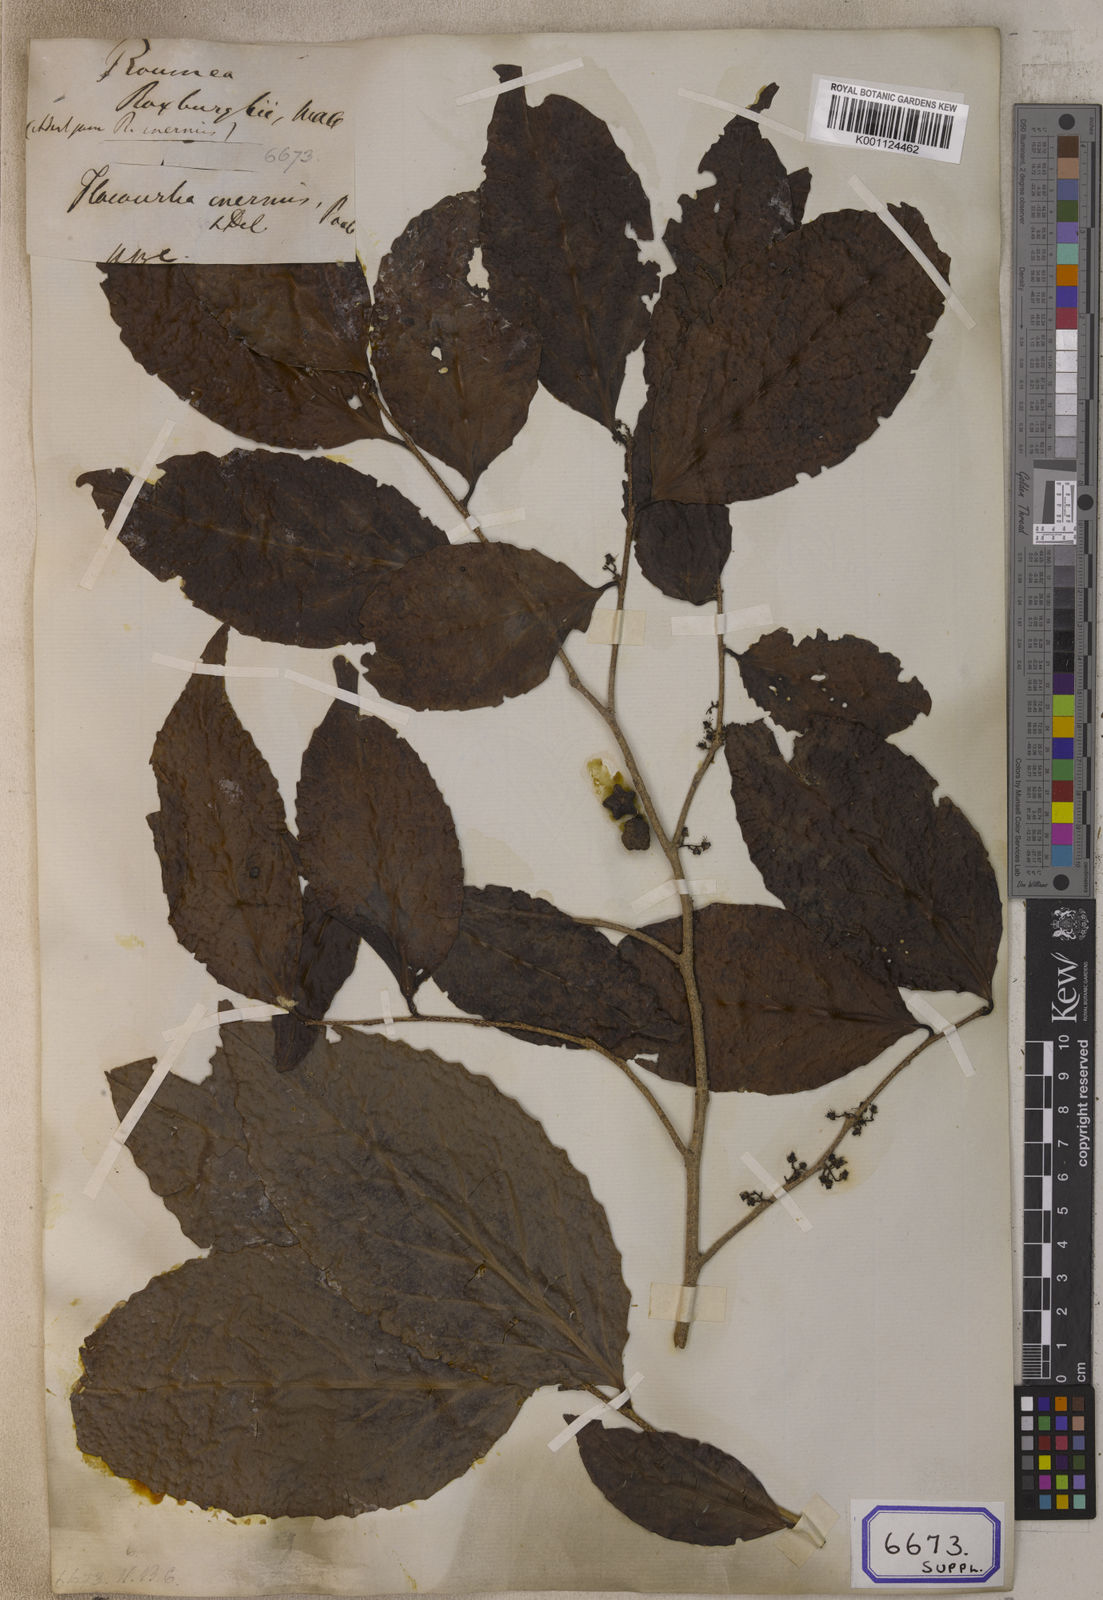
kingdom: Plantae
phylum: Tracheophyta
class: Magnoliopsida
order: Malpighiales
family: Salicaceae
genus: Flacourtia
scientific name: Flacourtia
